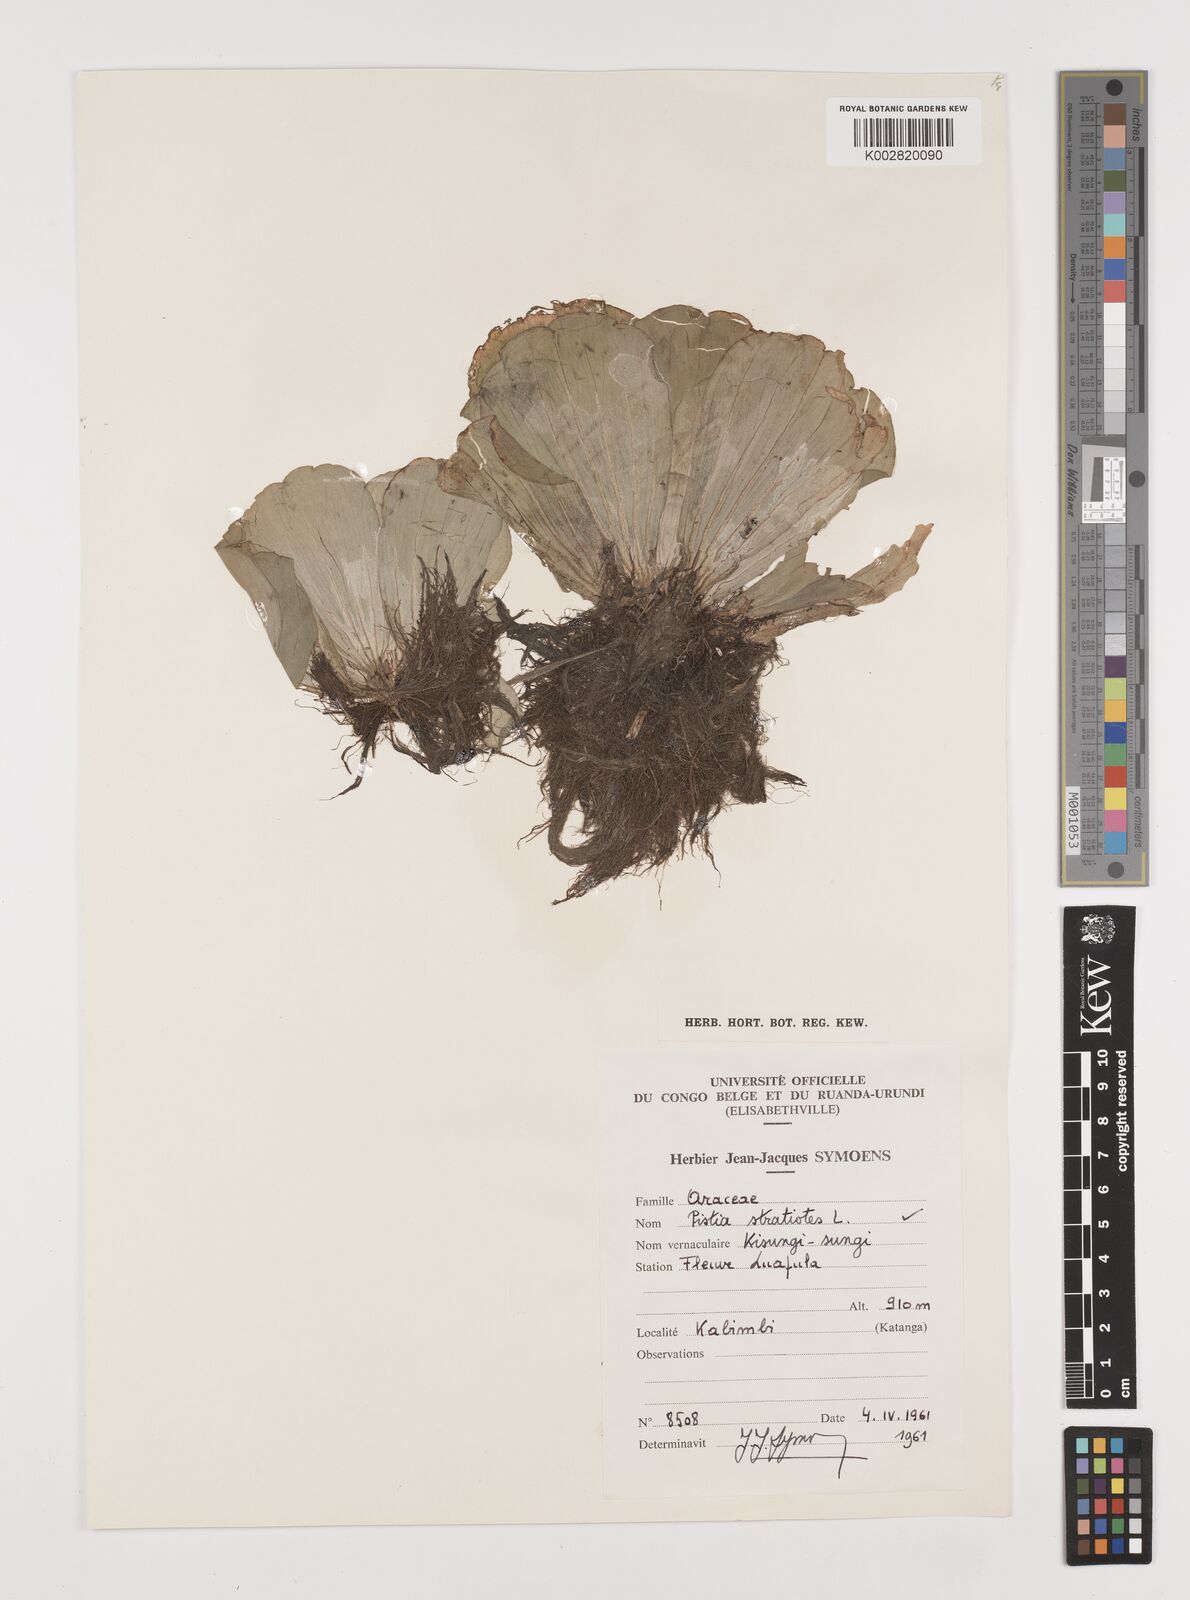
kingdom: Plantae
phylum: Tracheophyta
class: Liliopsida
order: Alismatales
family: Araceae
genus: Pistia
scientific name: Pistia stratiotes
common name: Water lettuce
